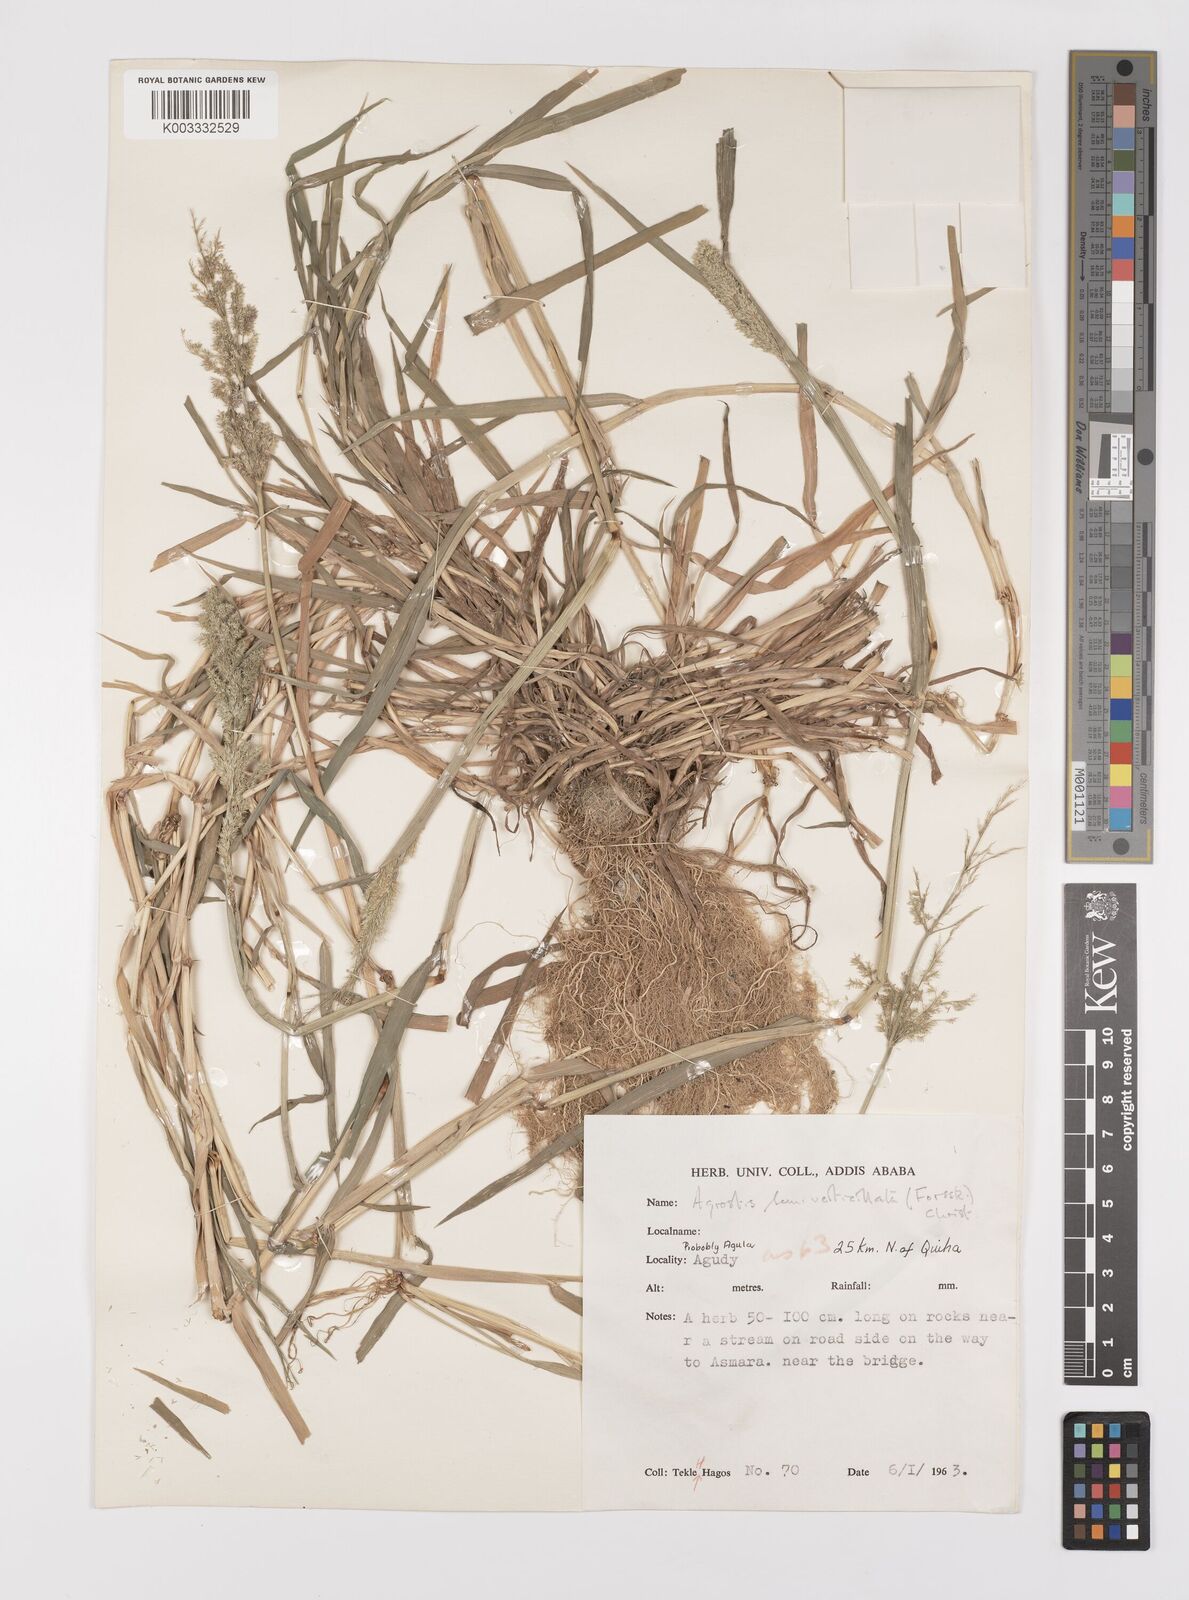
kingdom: Plantae
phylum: Tracheophyta
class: Liliopsida
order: Poales
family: Poaceae
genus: Polypogon
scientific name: Polypogon viridis
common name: Water bent
